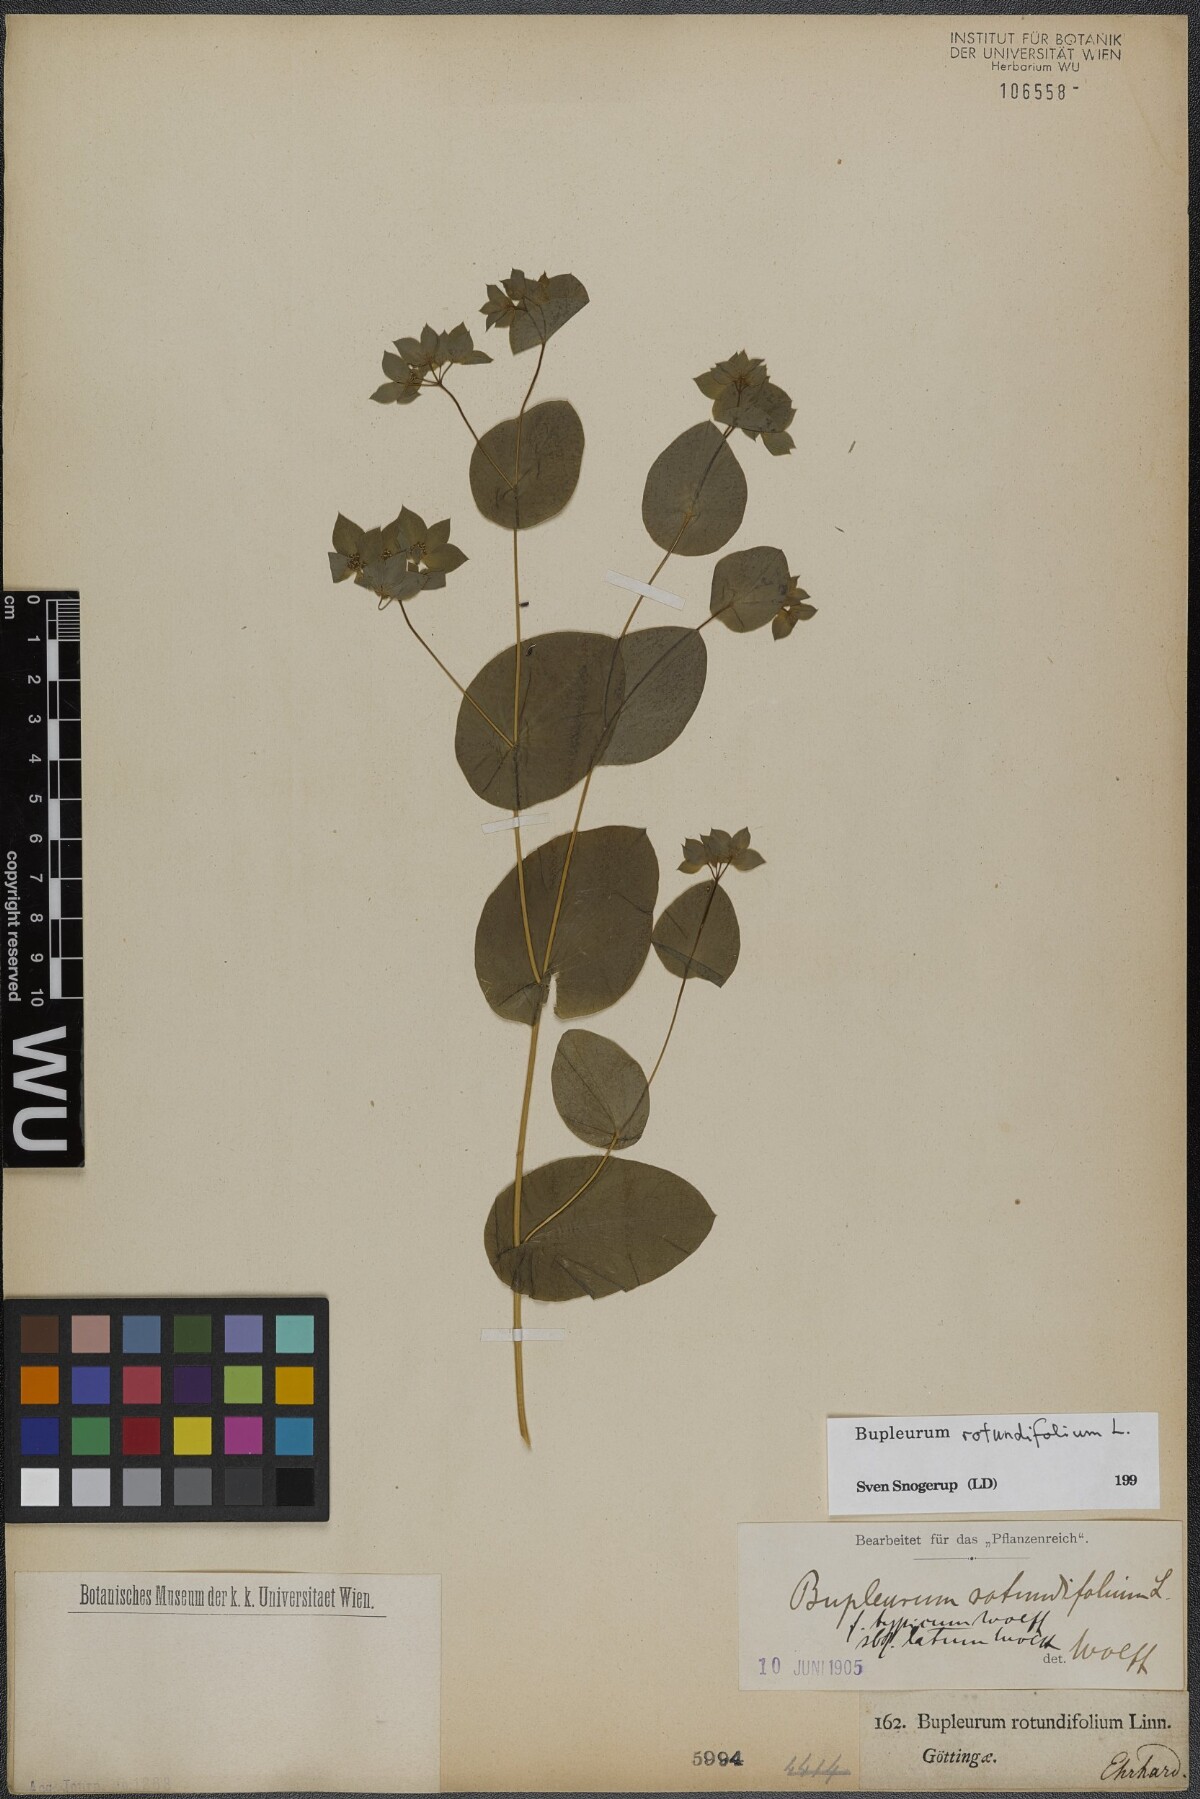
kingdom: Plantae
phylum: Tracheophyta
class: Magnoliopsida
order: Apiales
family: Apiaceae
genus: Bupleurum
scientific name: Bupleurum rotundifolium
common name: Thorow-wax
